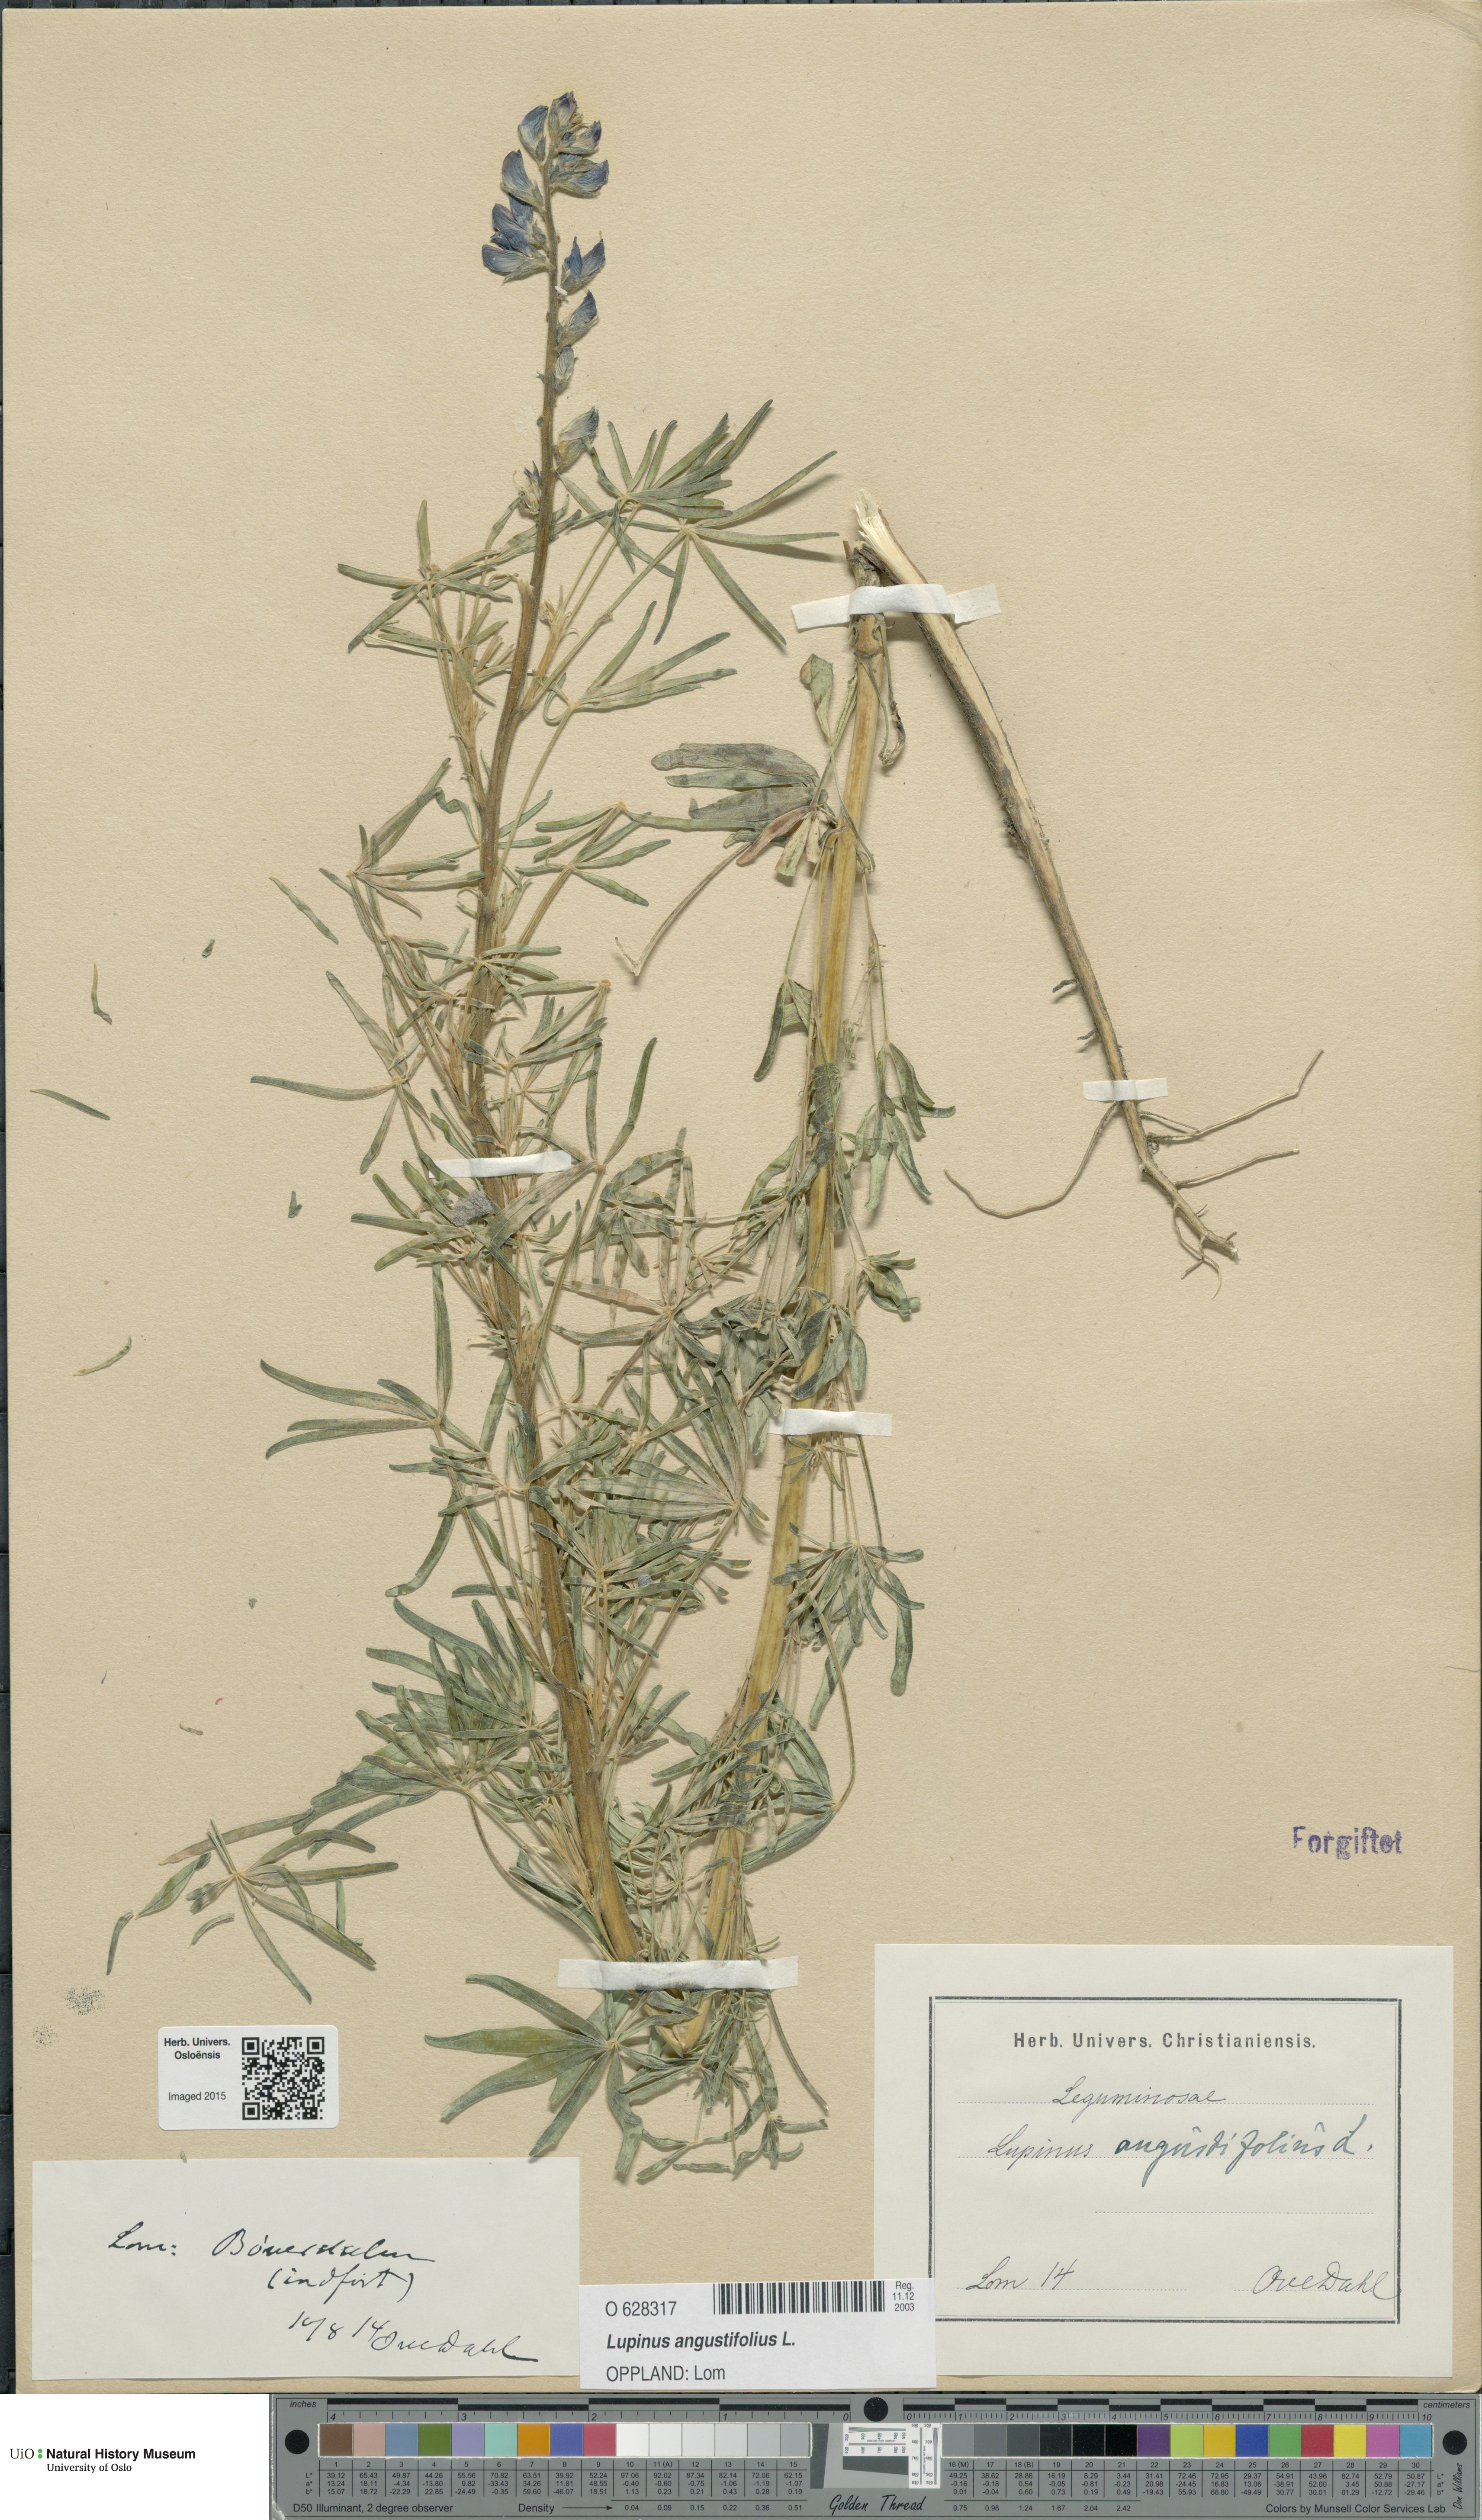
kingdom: Plantae
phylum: Tracheophyta
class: Magnoliopsida
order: Fabales
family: Fabaceae
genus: Lupinus
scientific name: Lupinus angustifolius
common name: Narrow-leaved lupin
